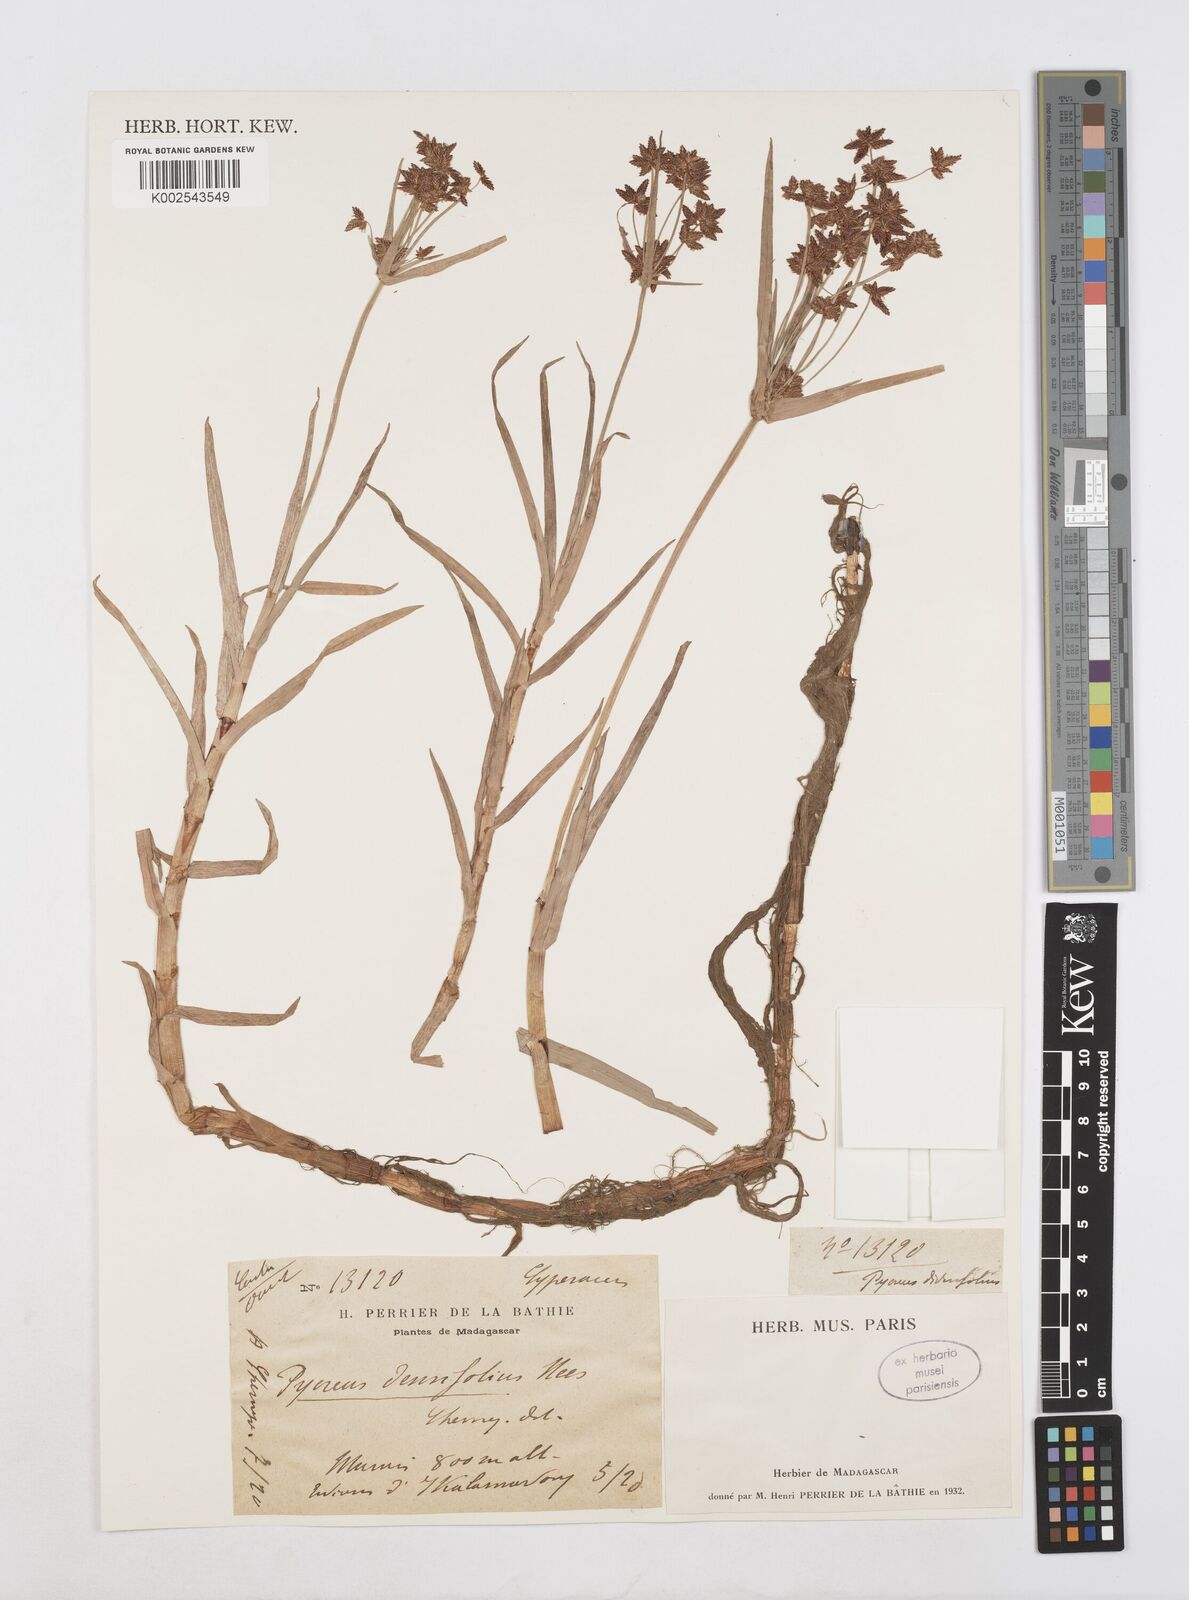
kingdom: Plantae
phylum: Tracheophyta
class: Liliopsida
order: Poales
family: Cyperaceae
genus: Cyperus
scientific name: Cyperus mundii
